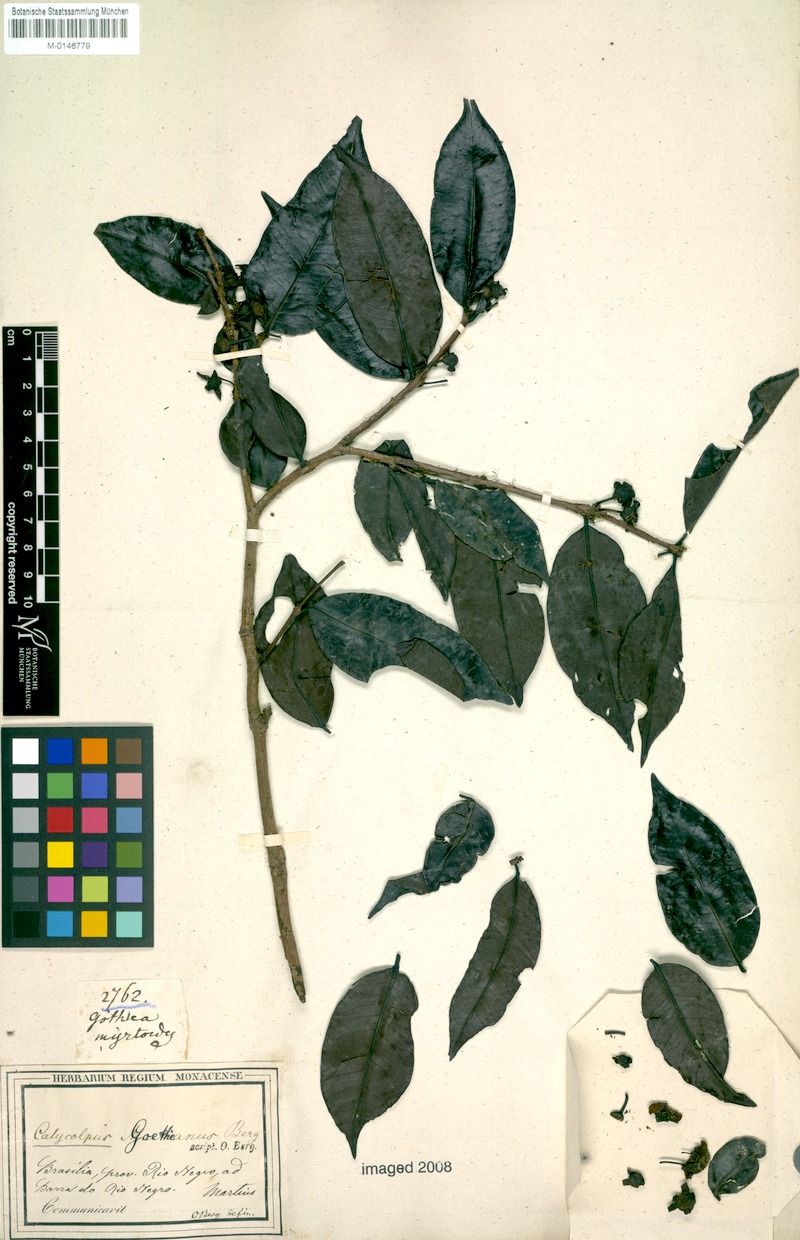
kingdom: Plantae
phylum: Tracheophyta
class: Magnoliopsida
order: Myrtales
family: Myrtaceae
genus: Calycolpus
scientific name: Calycolpus goetheanus
